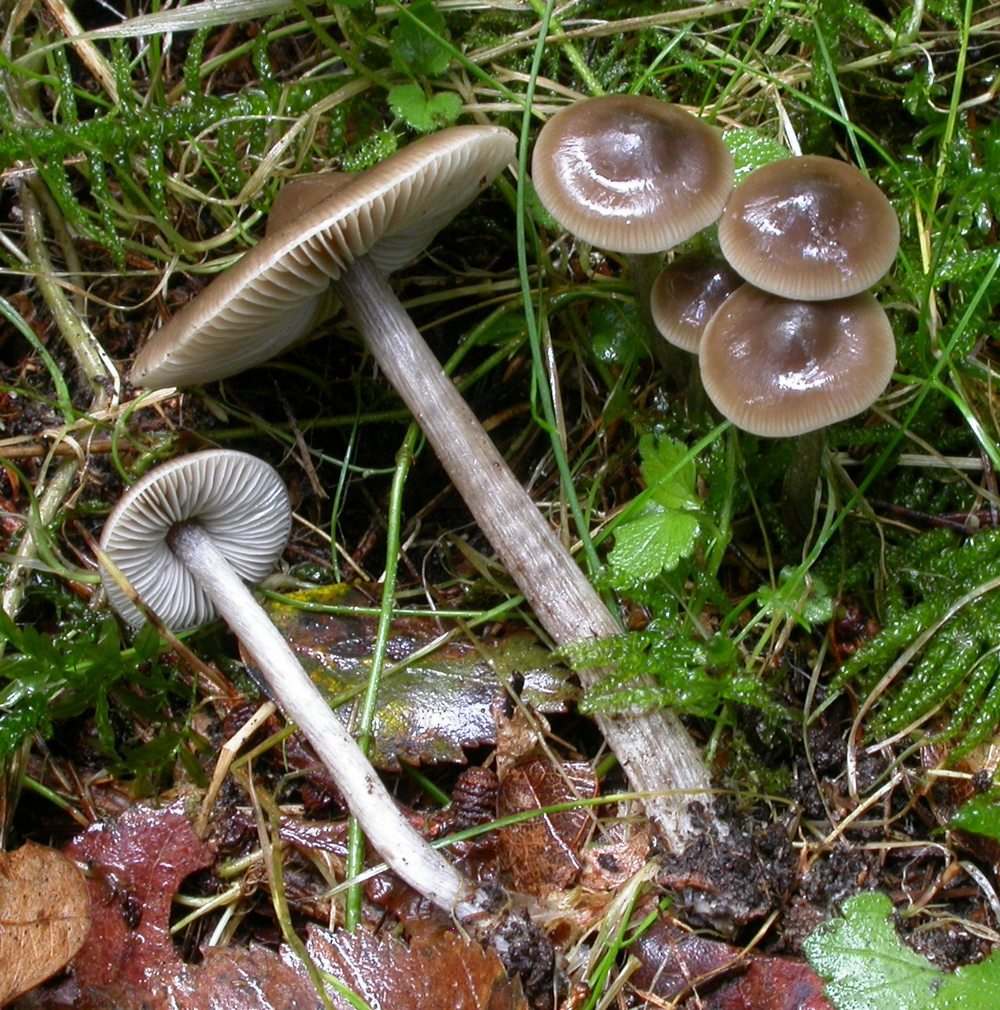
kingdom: Fungi
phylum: Basidiomycota
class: Agaricomycetes
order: Agaricales
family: Lyophyllaceae
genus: Myochromella
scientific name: Myochromella boudieri
